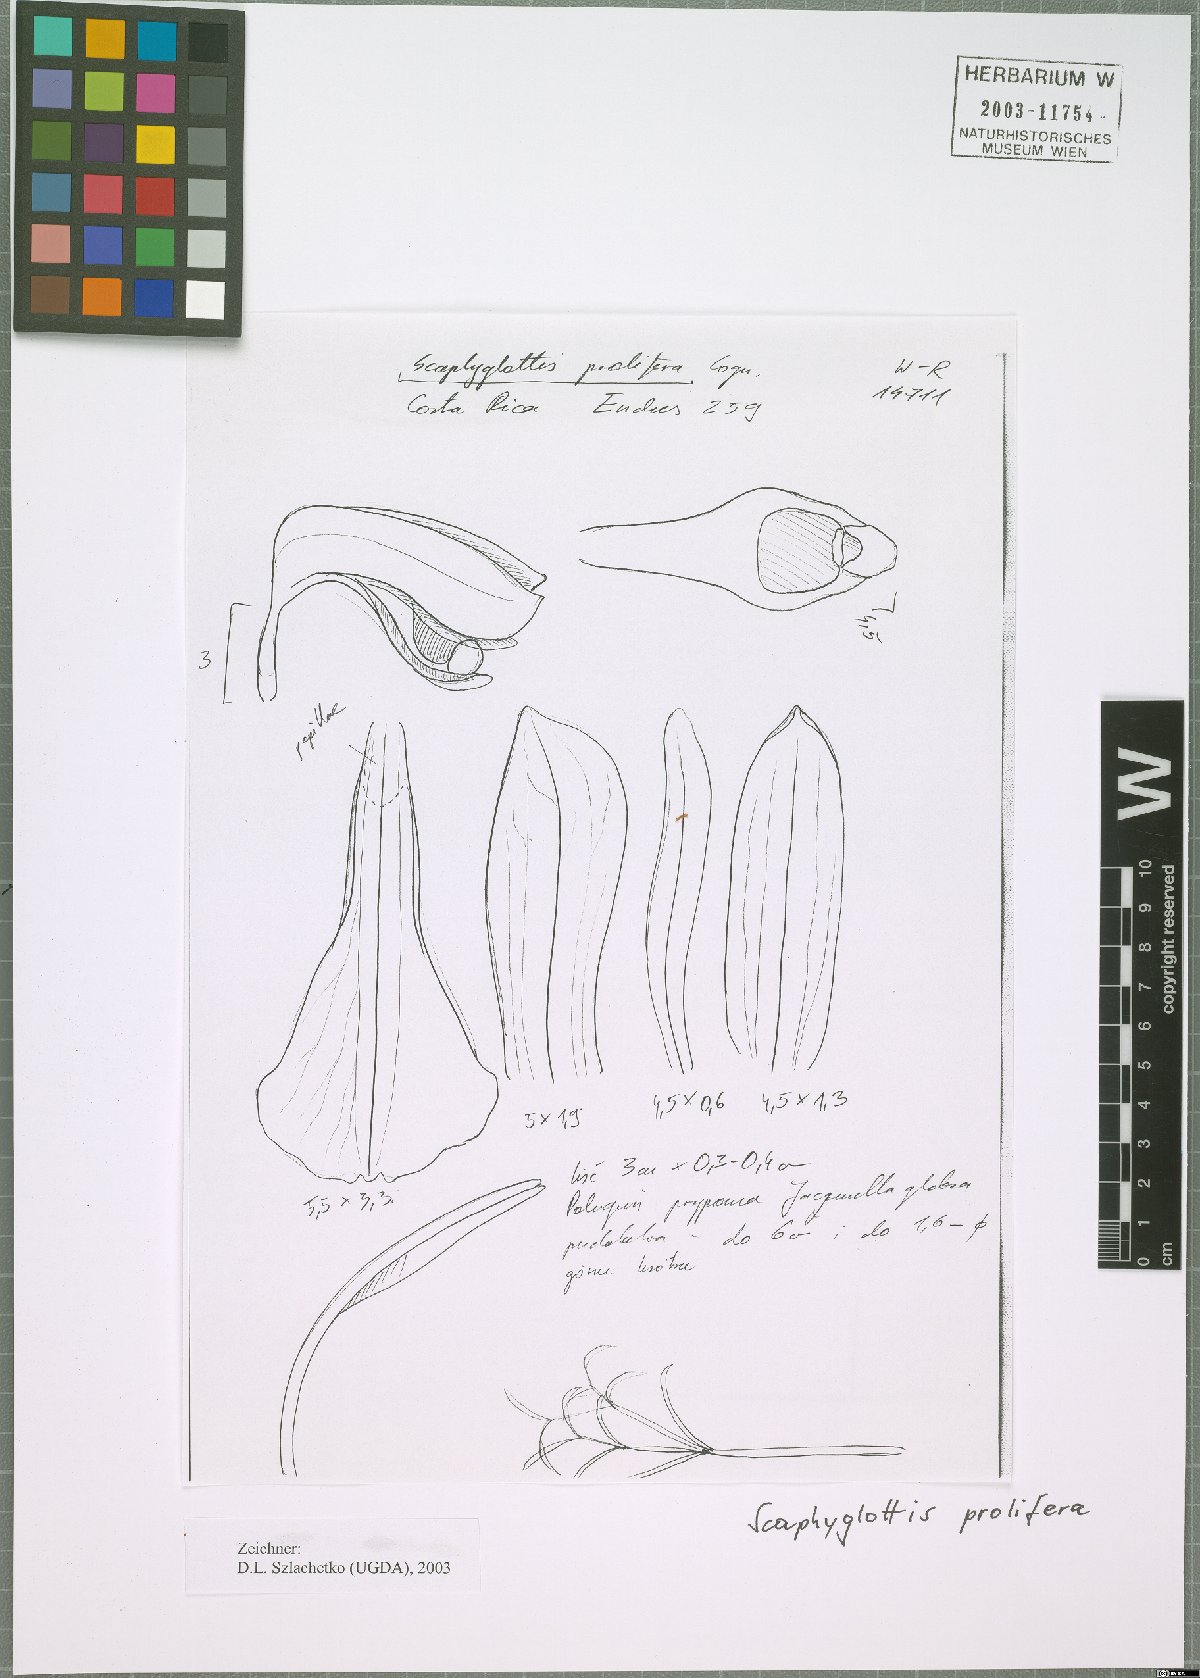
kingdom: Plantae
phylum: Tracheophyta
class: Liliopsida
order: Asparagales
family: Orchidaceae
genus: Scaphyglottis
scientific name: Scaphyglottis prolifera
